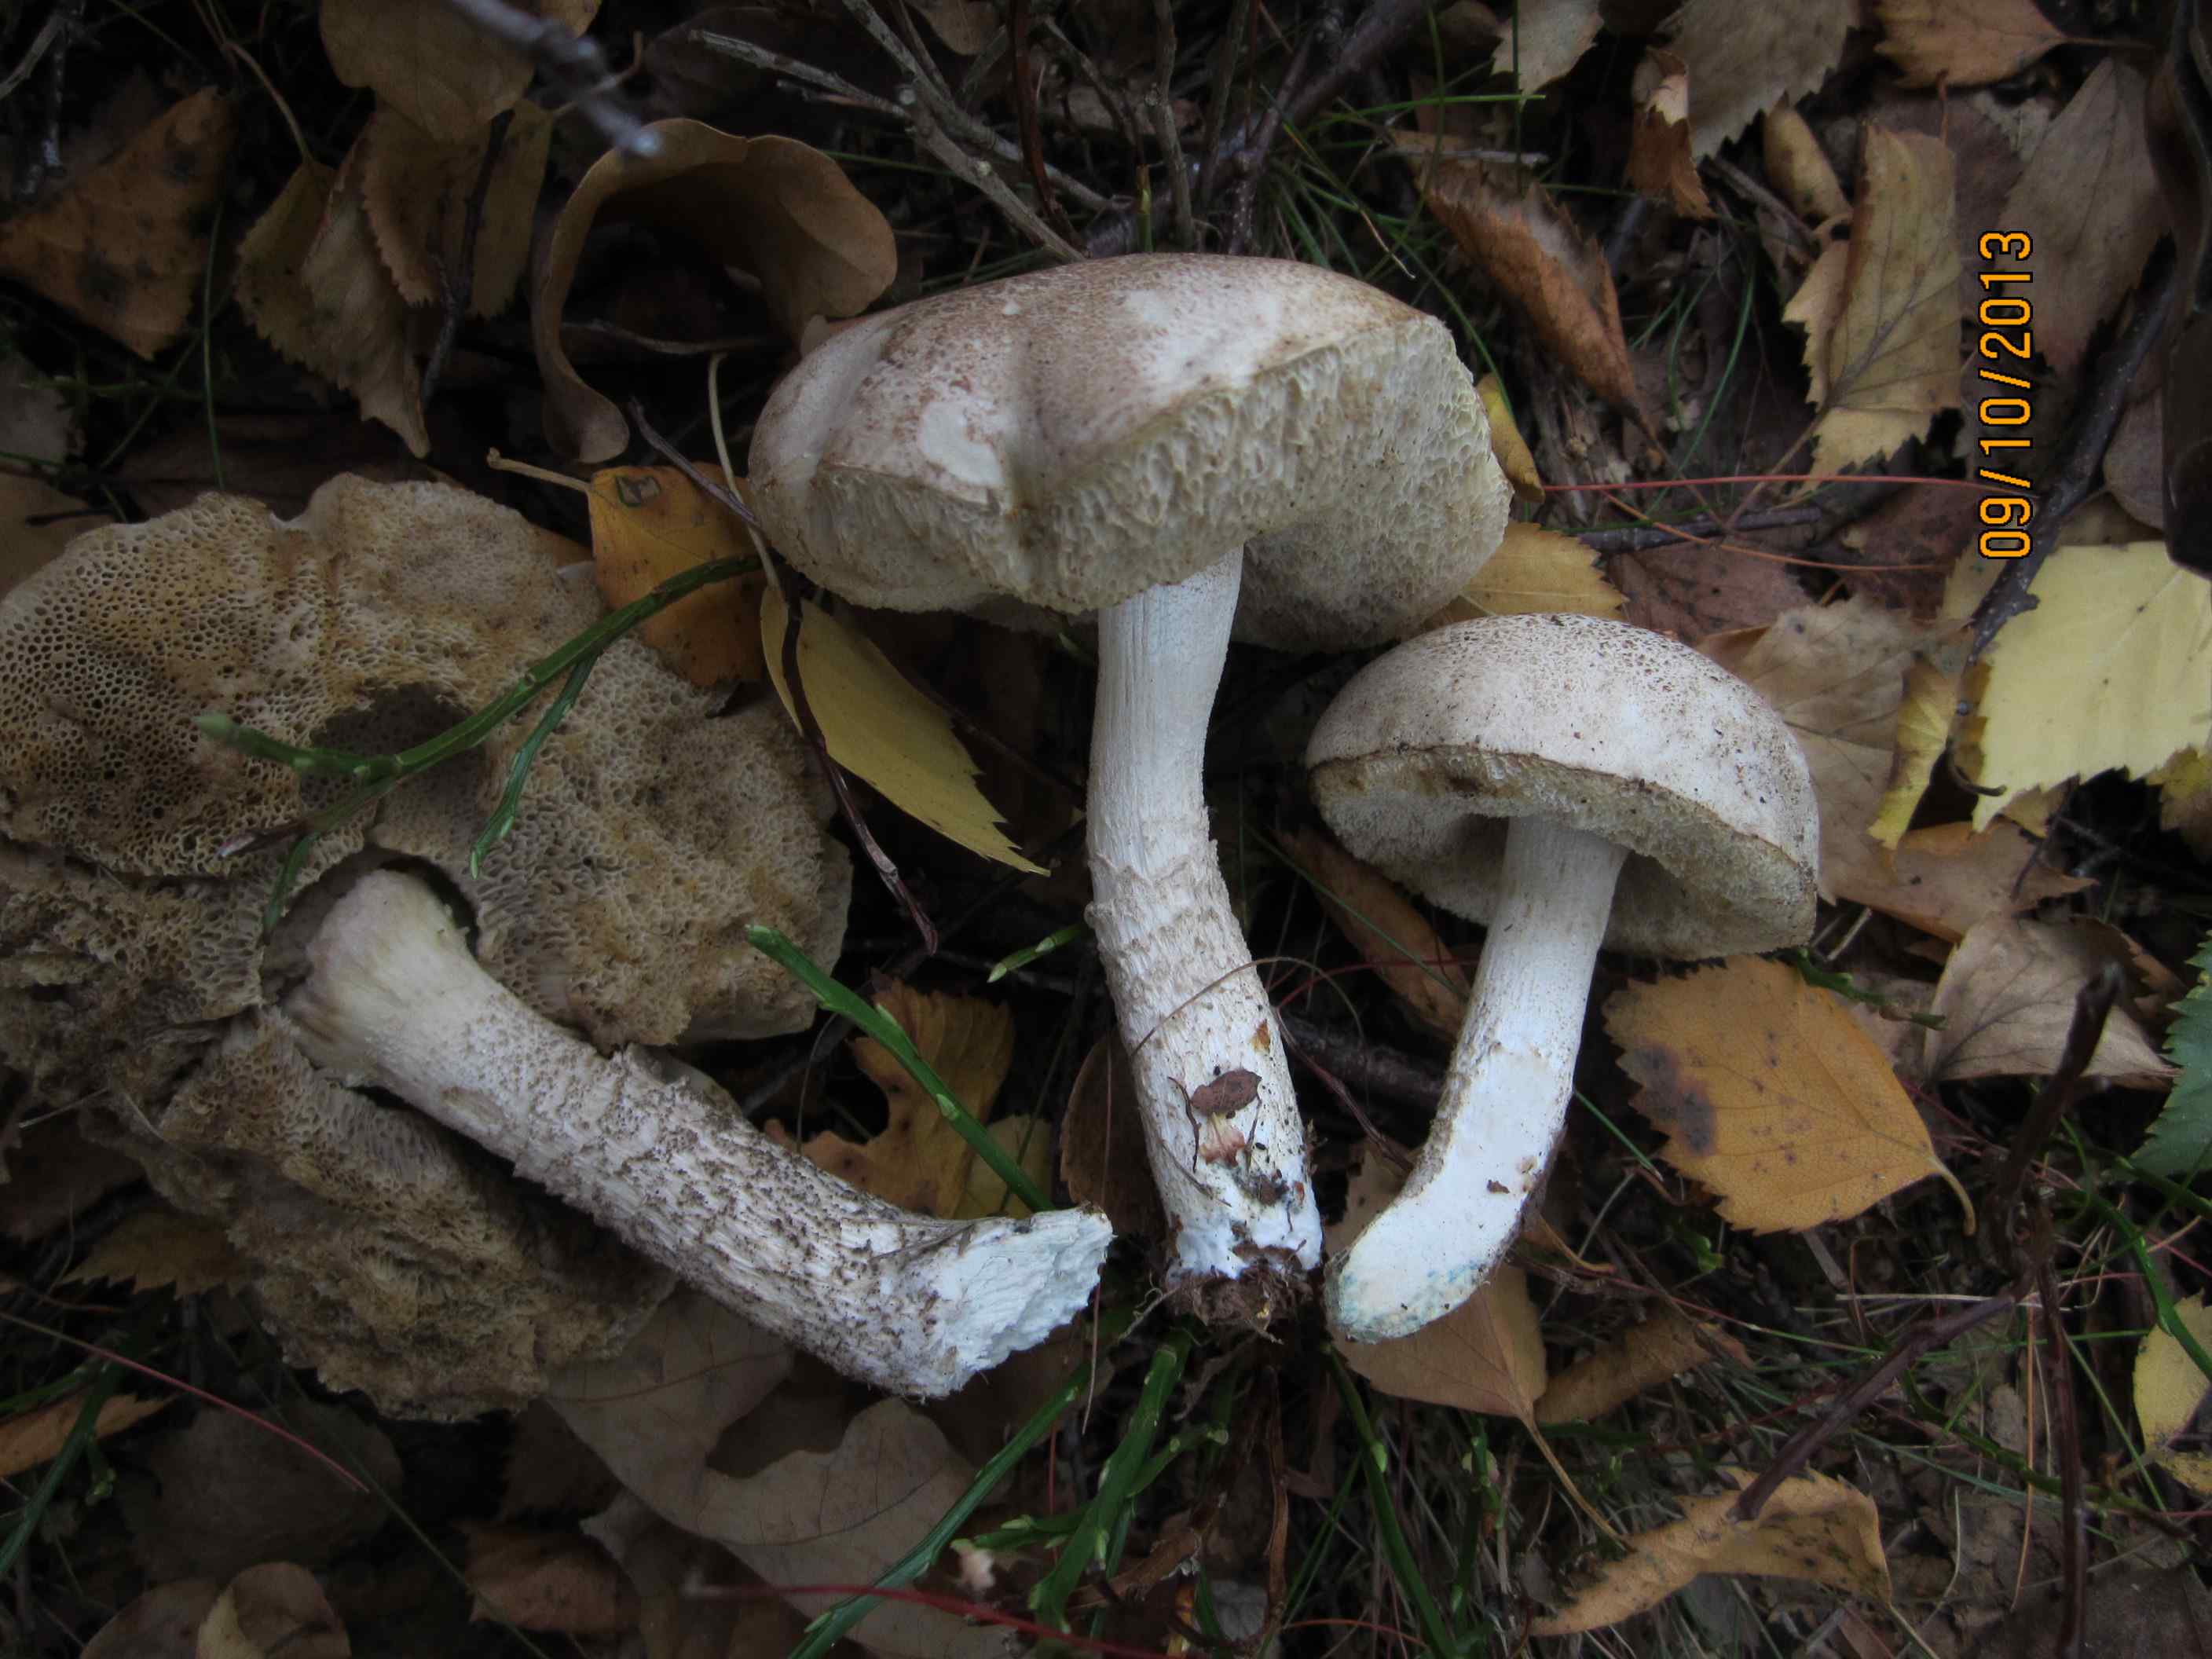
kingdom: Fungi
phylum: Basidiomycota
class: Agaricomycetes
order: Boletales
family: Boletaceae
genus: Leccinum
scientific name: Leccinum schistophilum
